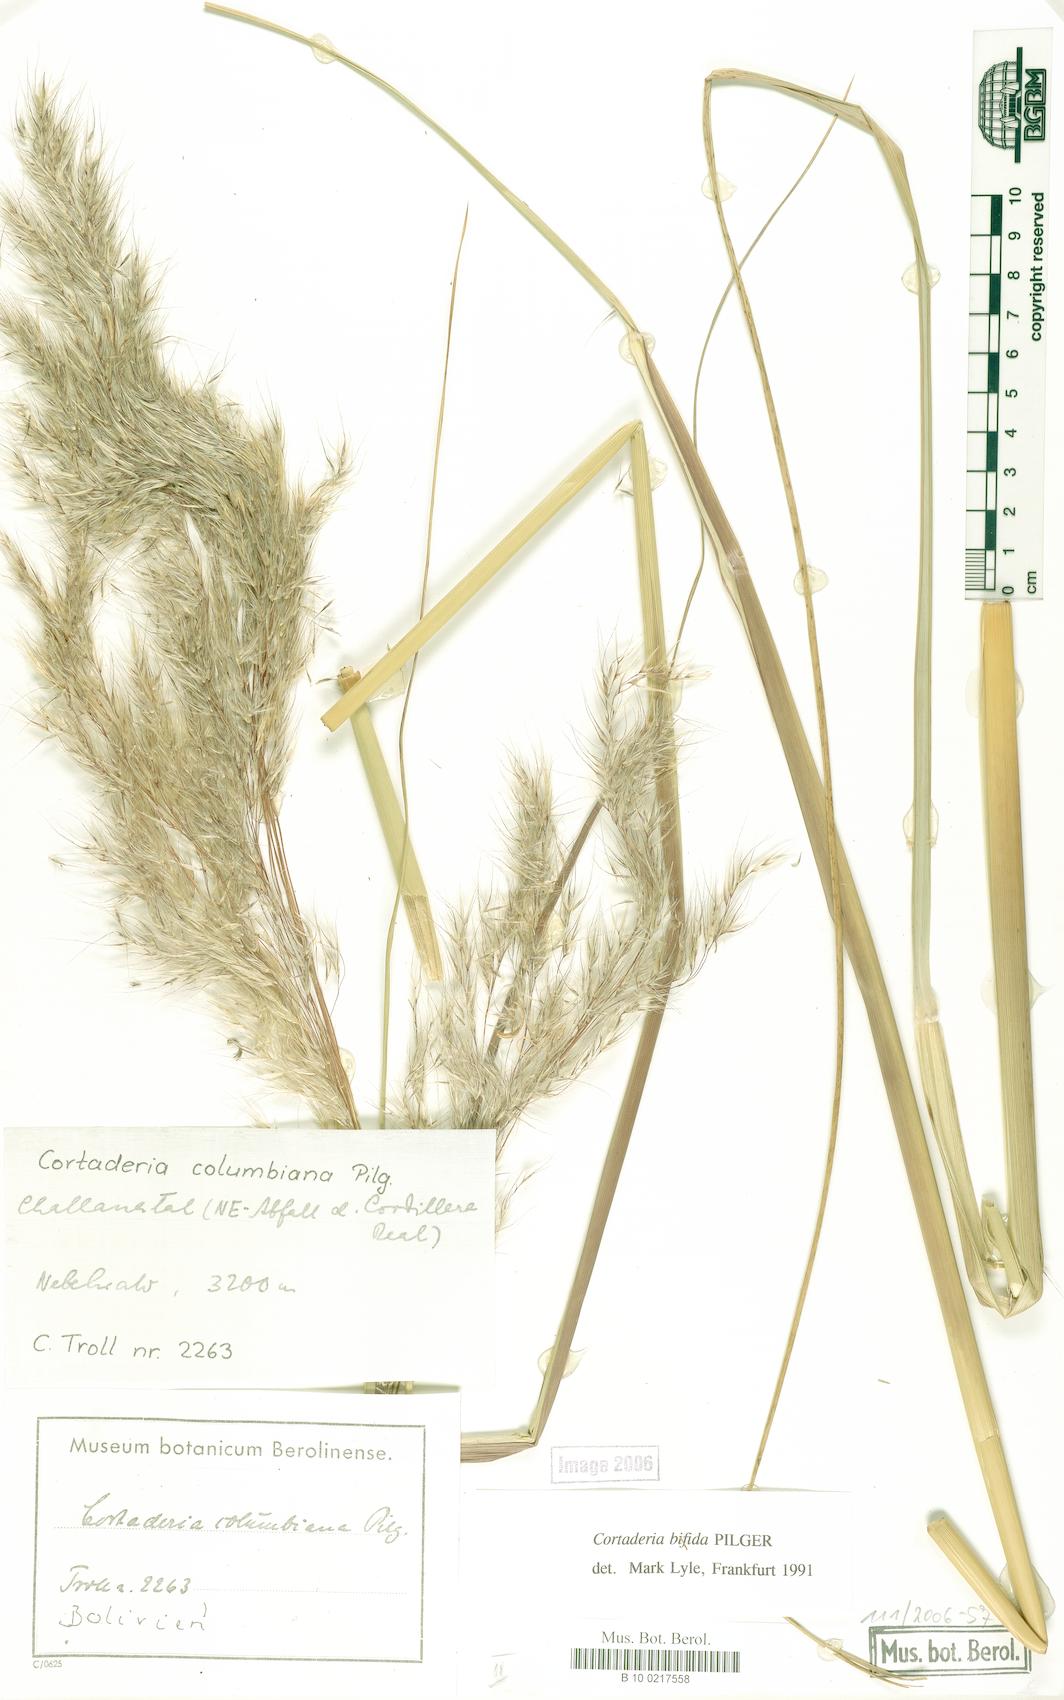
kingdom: Plantae
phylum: Tracheophyta
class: Liliopsida
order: Poales
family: Poaceae
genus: Cortaderia
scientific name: Cortaderia bifida
